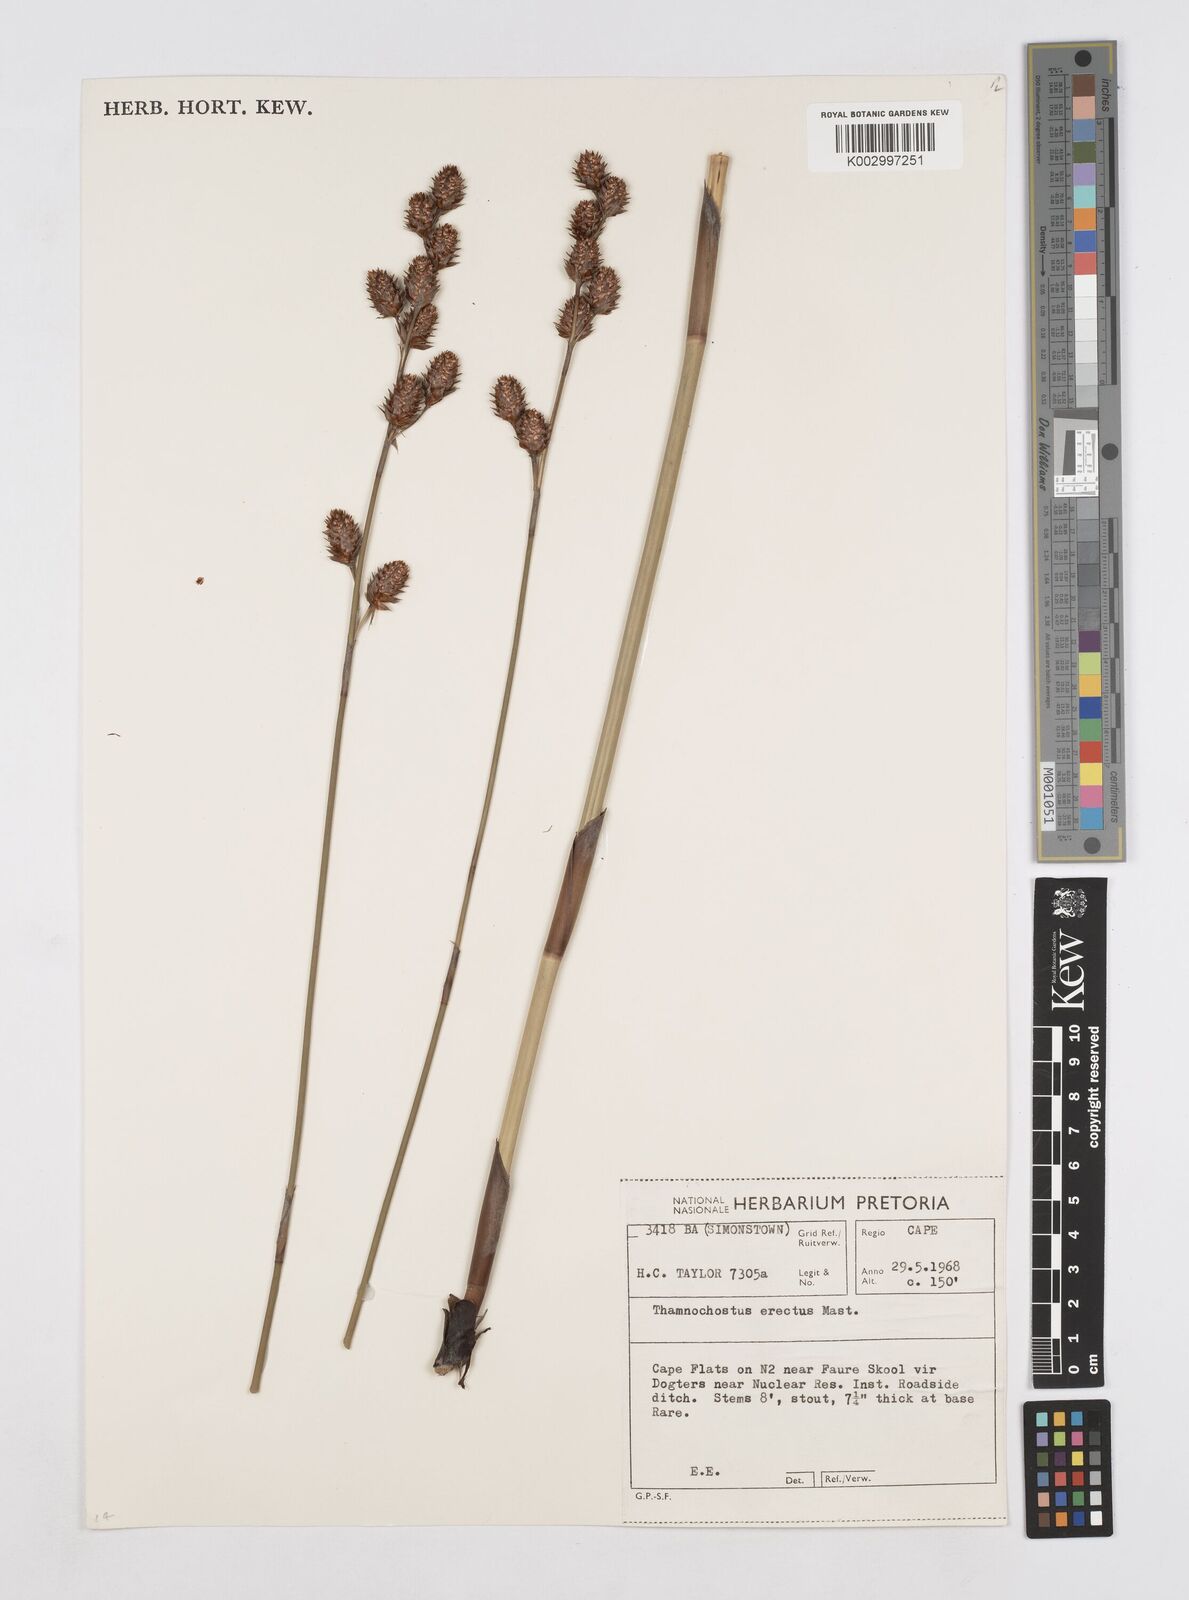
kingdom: Plantae
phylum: Tracheophyta
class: Liliopsida
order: Poales
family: Restionaceae
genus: Thamnochortus
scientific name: Thamnochortus spicigerus
